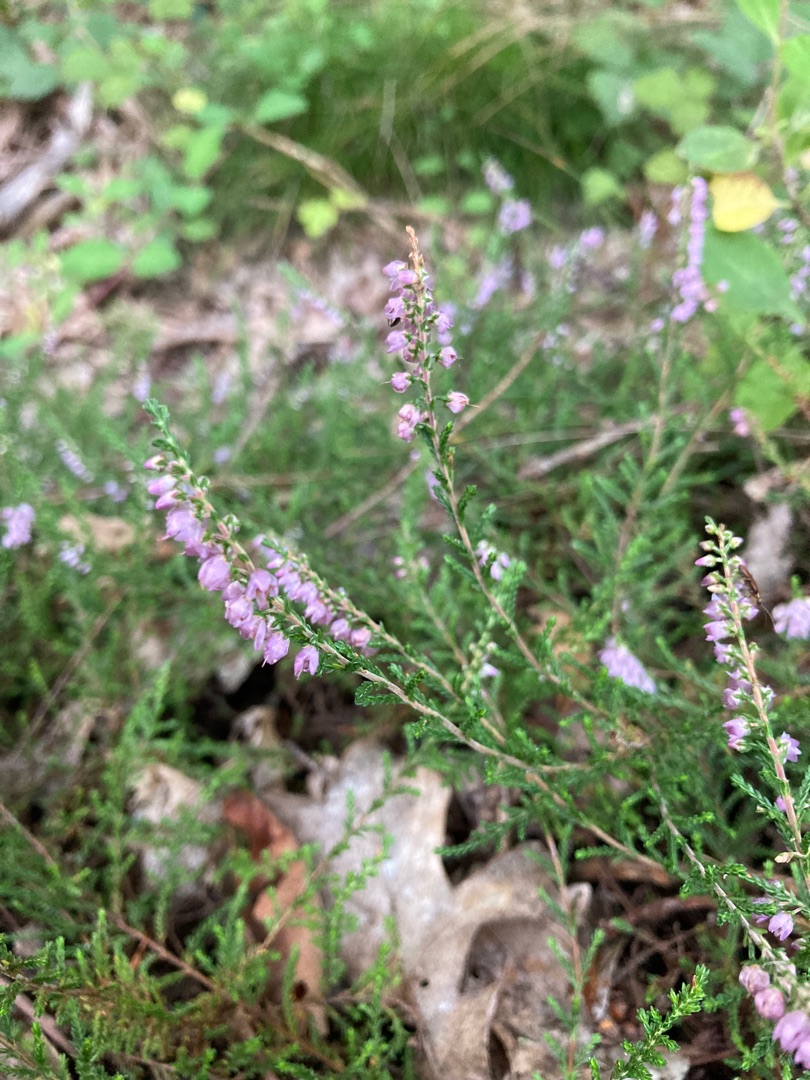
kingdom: Plantae
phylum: Tracheophyta
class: Magnoliopsida
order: Ericales
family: Ericaceae
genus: Calluna
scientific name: Calluna vulgaris
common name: Hedelyng
